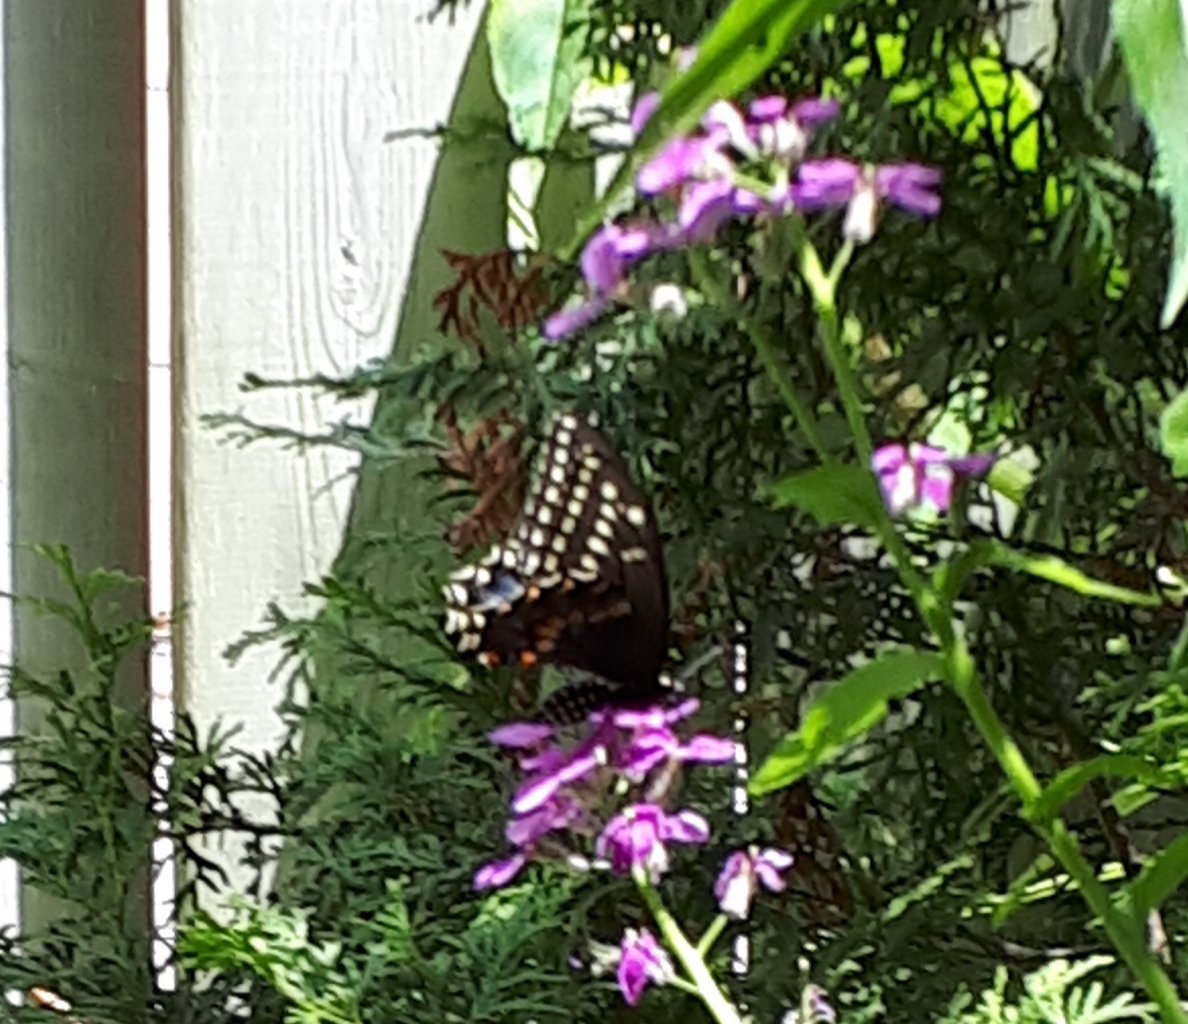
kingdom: Animalia
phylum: Arthropoda
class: Insecta
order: Lepidoptera
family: Papilionidae
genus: Papilio
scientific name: Papilio polyxenes
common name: Black Swallowtail
